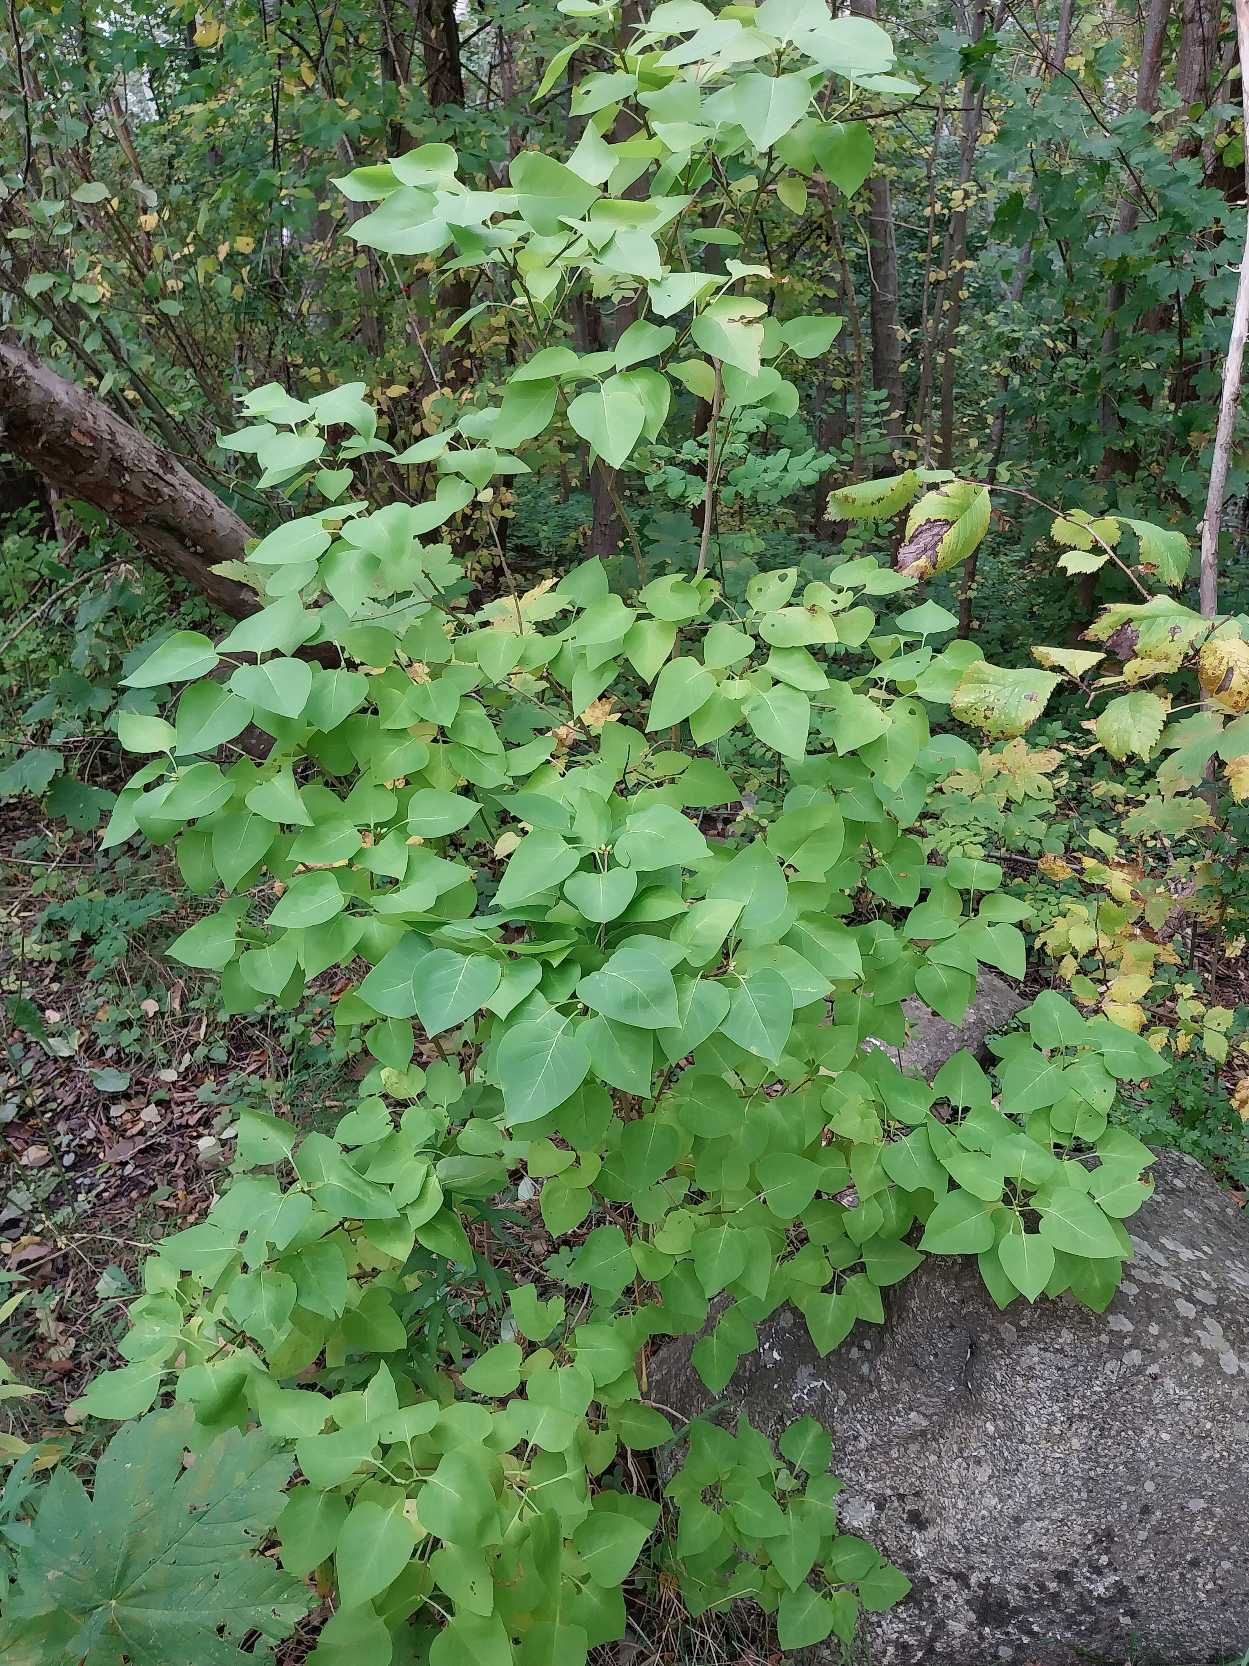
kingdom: Plantae
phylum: Tracheophyta
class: Magnoliopsida
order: Lamiales
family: Oleaceae
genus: Syringa
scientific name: Syringa vulgaris
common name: Syren
